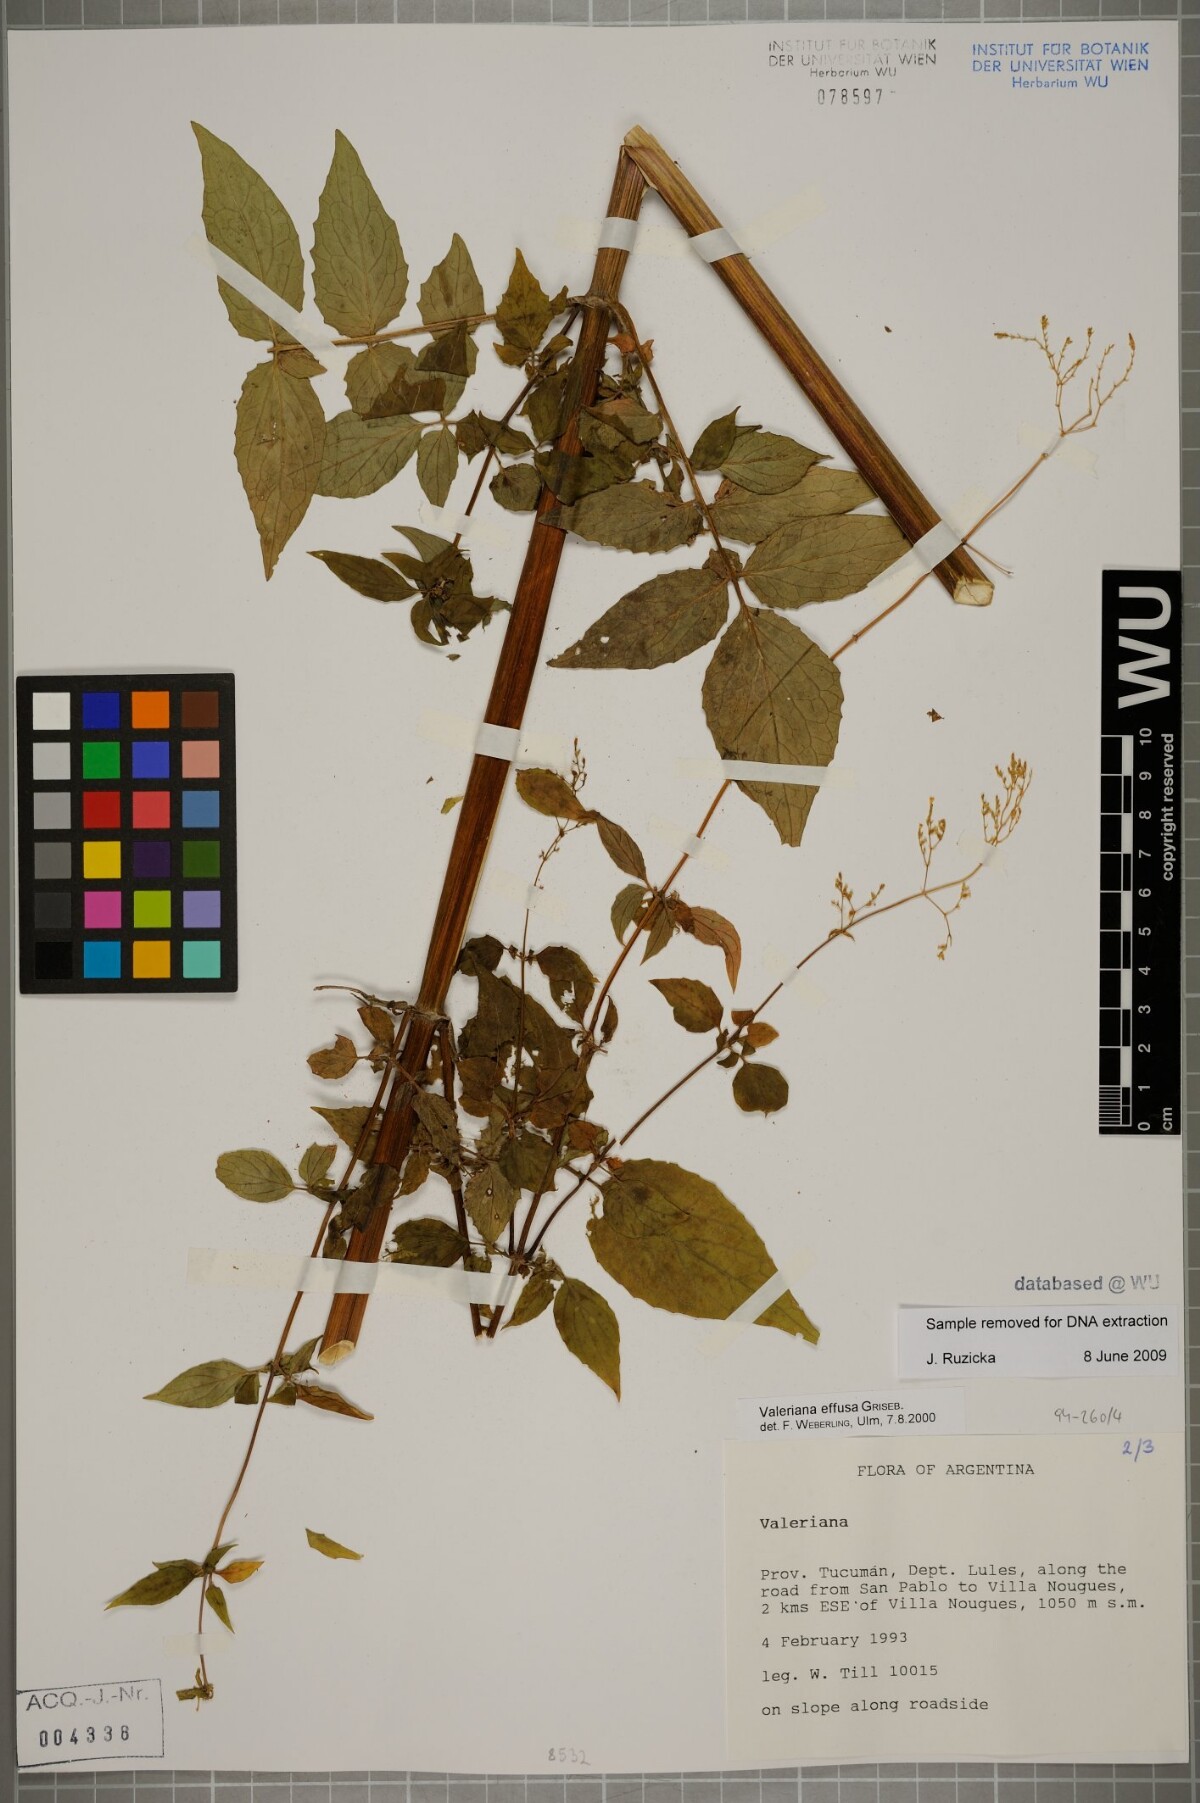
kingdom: Plantae
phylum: Tracheophyta
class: Magnoliopsida
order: Dipsacales
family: Caprifoliaceae
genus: Valeriana
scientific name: Valeriana effusa
